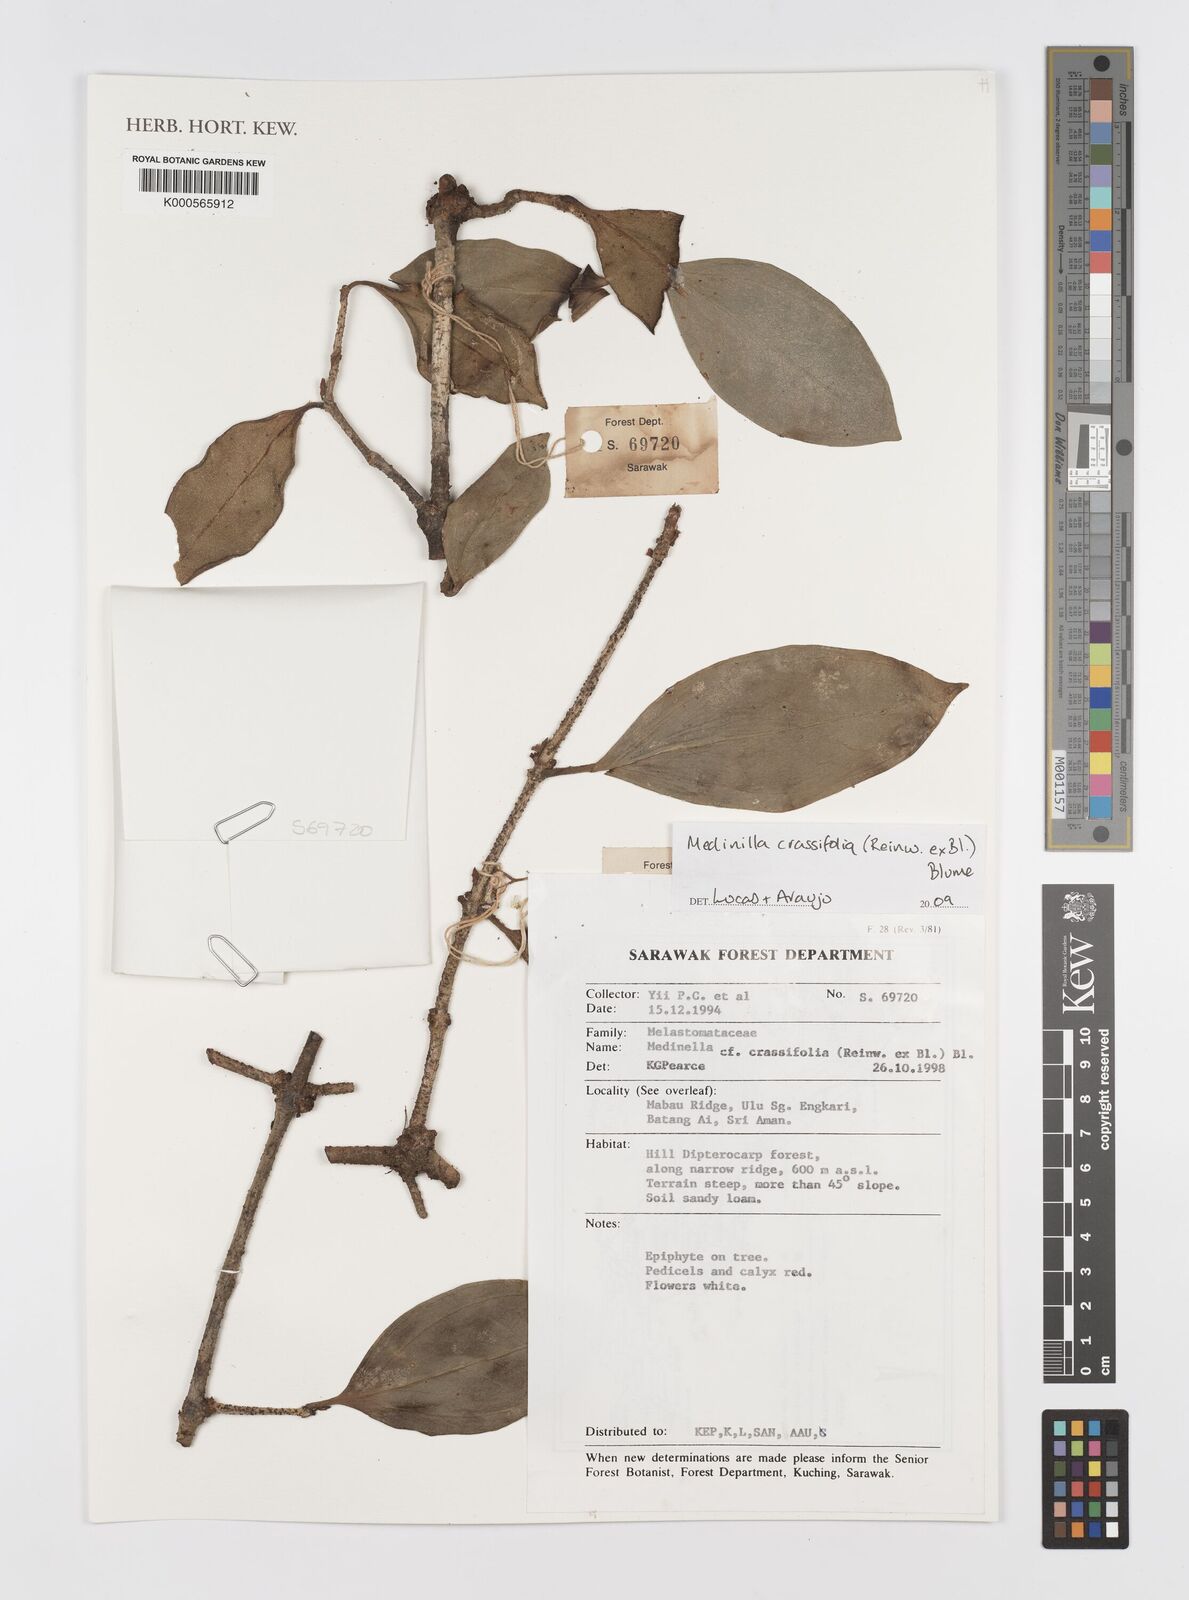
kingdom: Plantae
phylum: Tracheophyta
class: Magnoliopsida
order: Myrtales
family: Melastomataceae
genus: Medinilla
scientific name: Medinilla crassifolia
